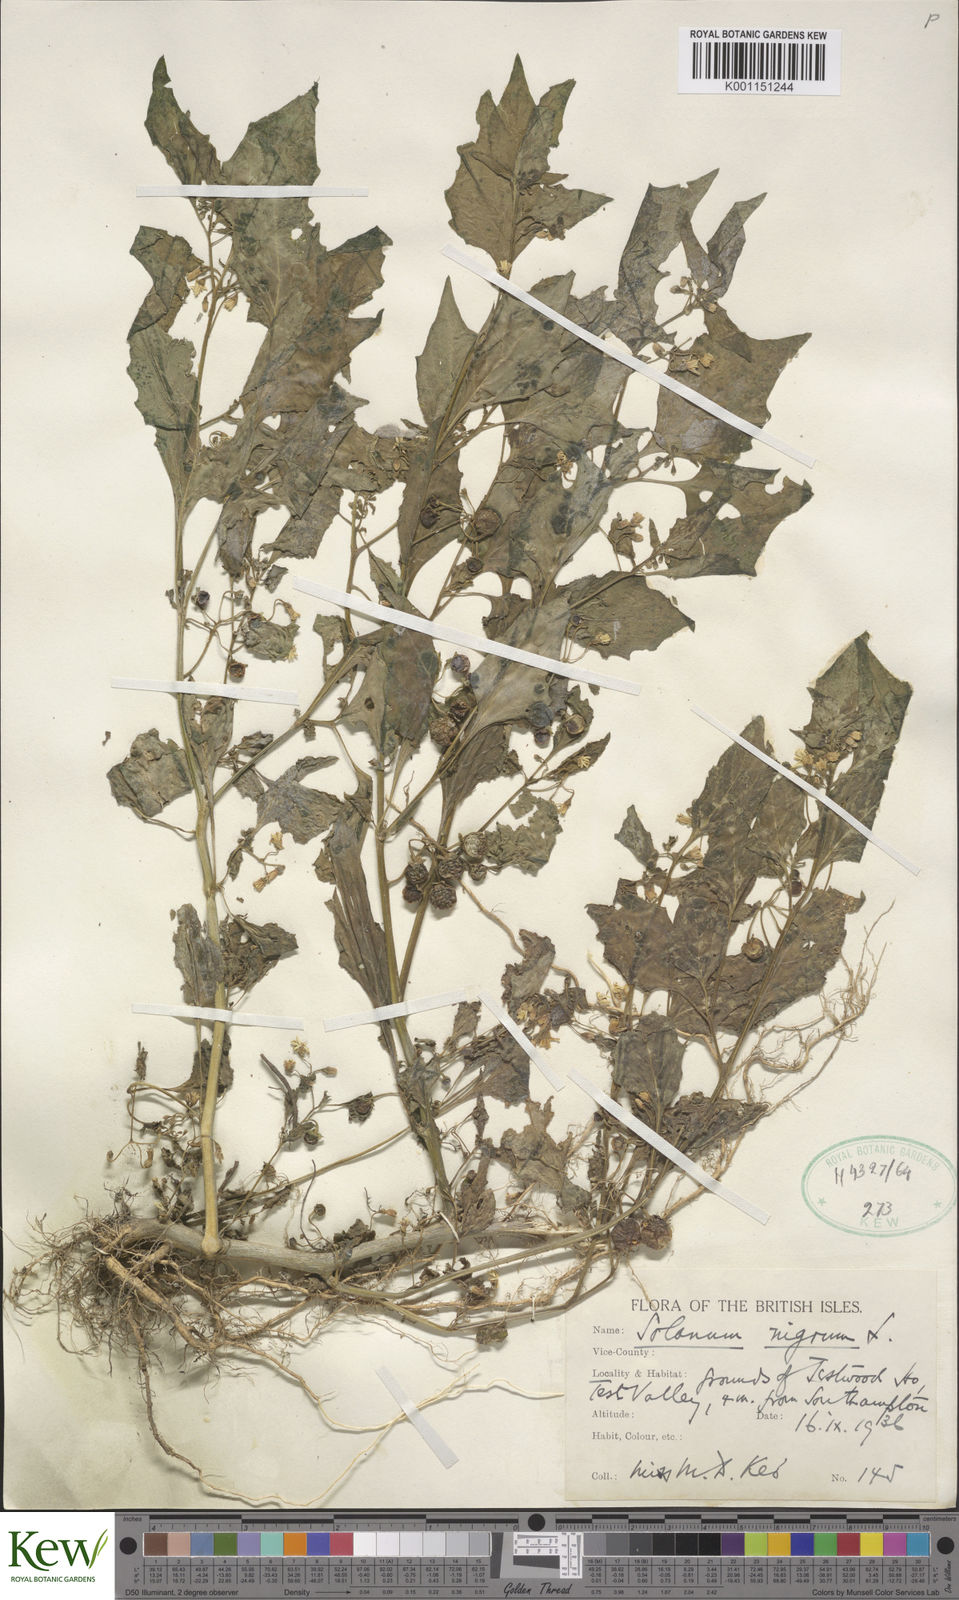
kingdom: Plantae
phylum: Tracheophyta
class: Magnoliopsida
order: Solanales
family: Solanaceae
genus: Solanum
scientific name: Solanum nigrum
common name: Black nightshade
